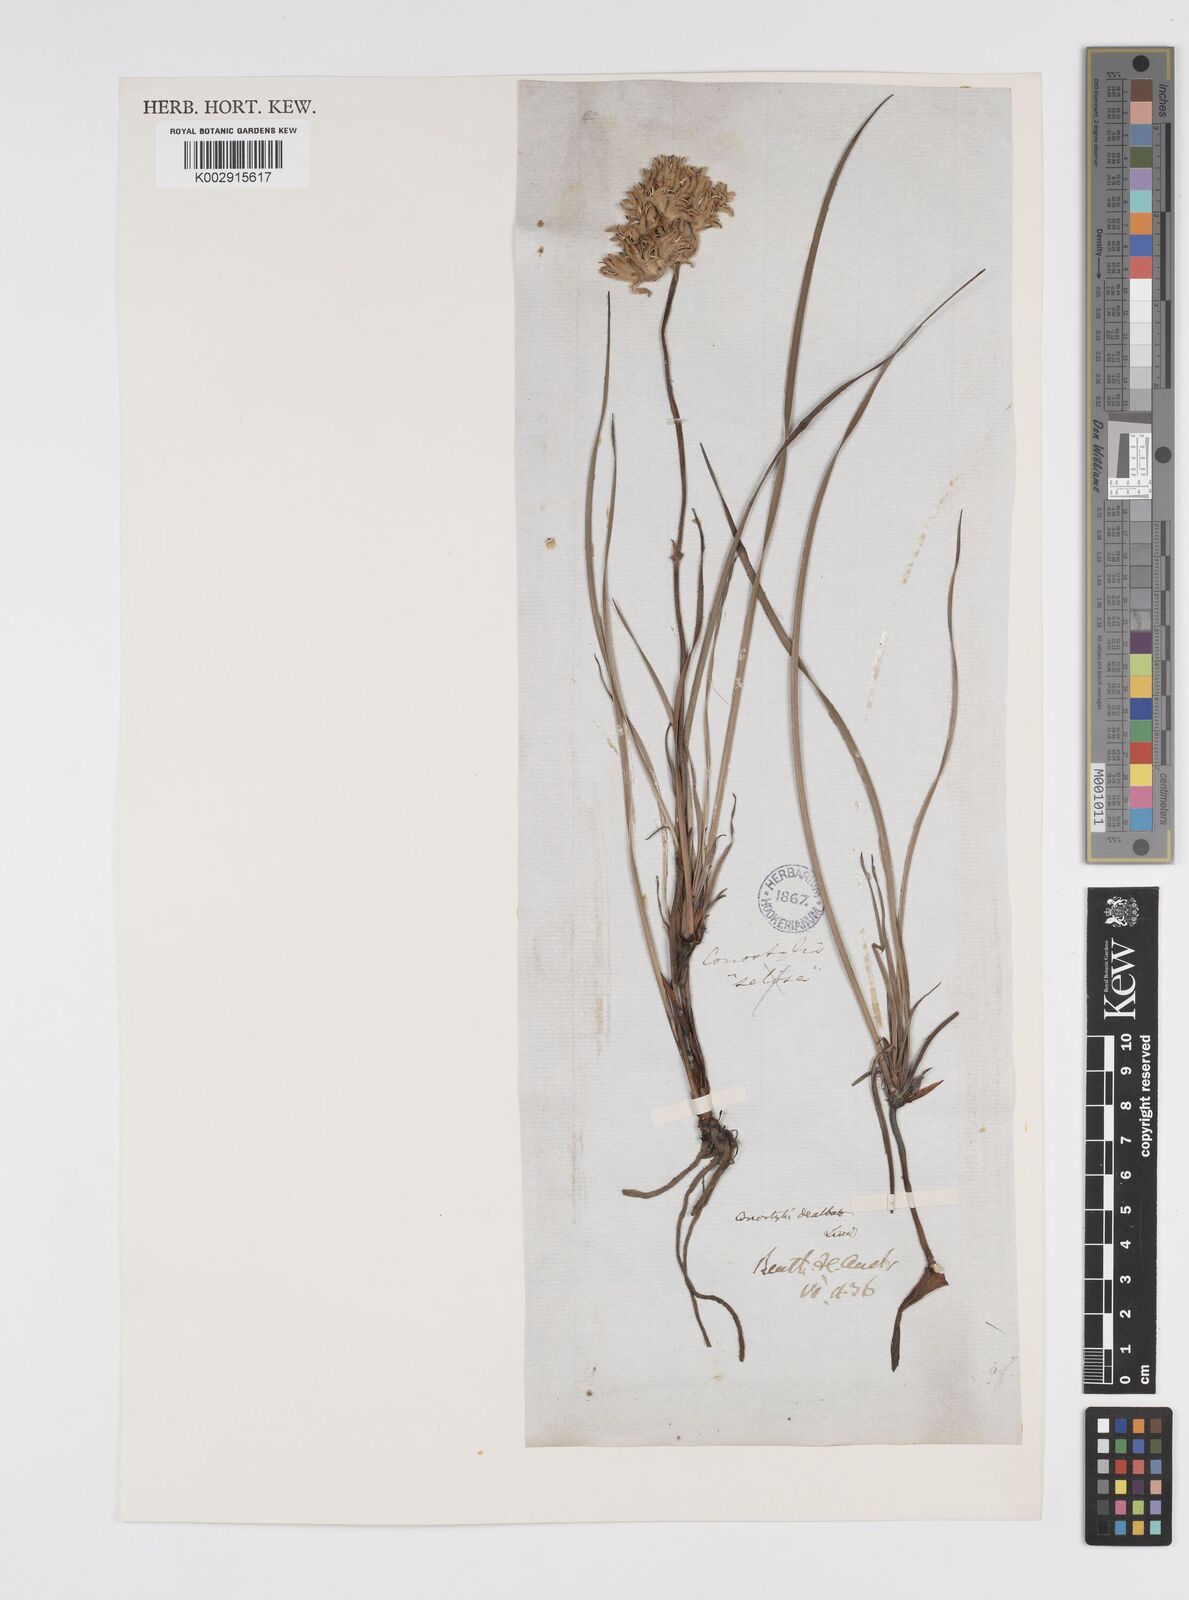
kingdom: Plantae
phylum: Tracheophyta
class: Liliopsida
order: Commelinales
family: Haemodoraceae
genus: Conostylis
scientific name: Conostylis candicans
